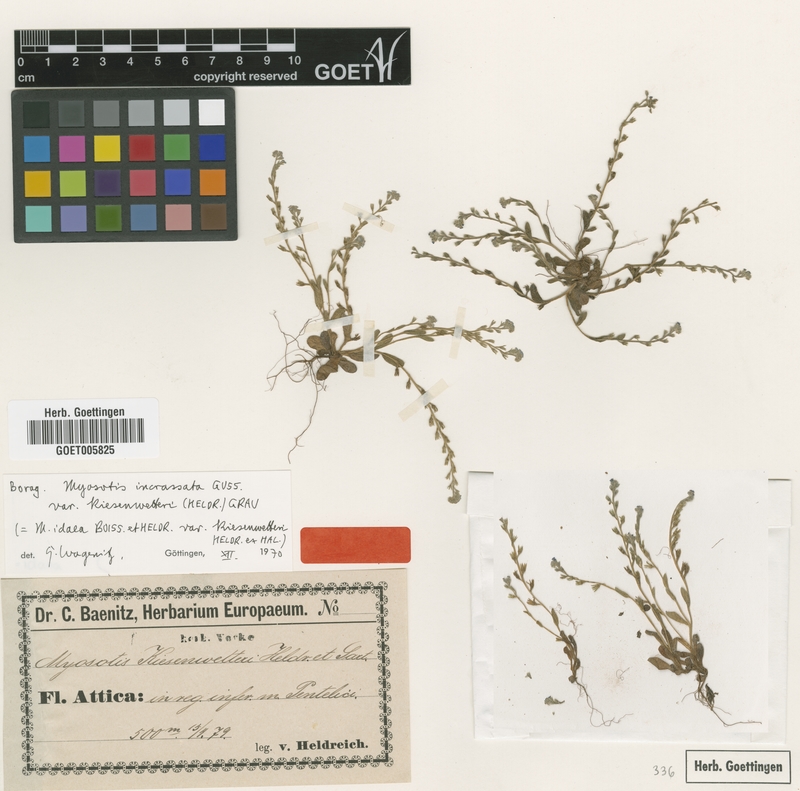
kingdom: Plantae
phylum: Tracheophyta
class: Magnoliopsida
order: Boraginales
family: Boraginaceae
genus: Myosotis
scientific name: Myosotis incrassata
